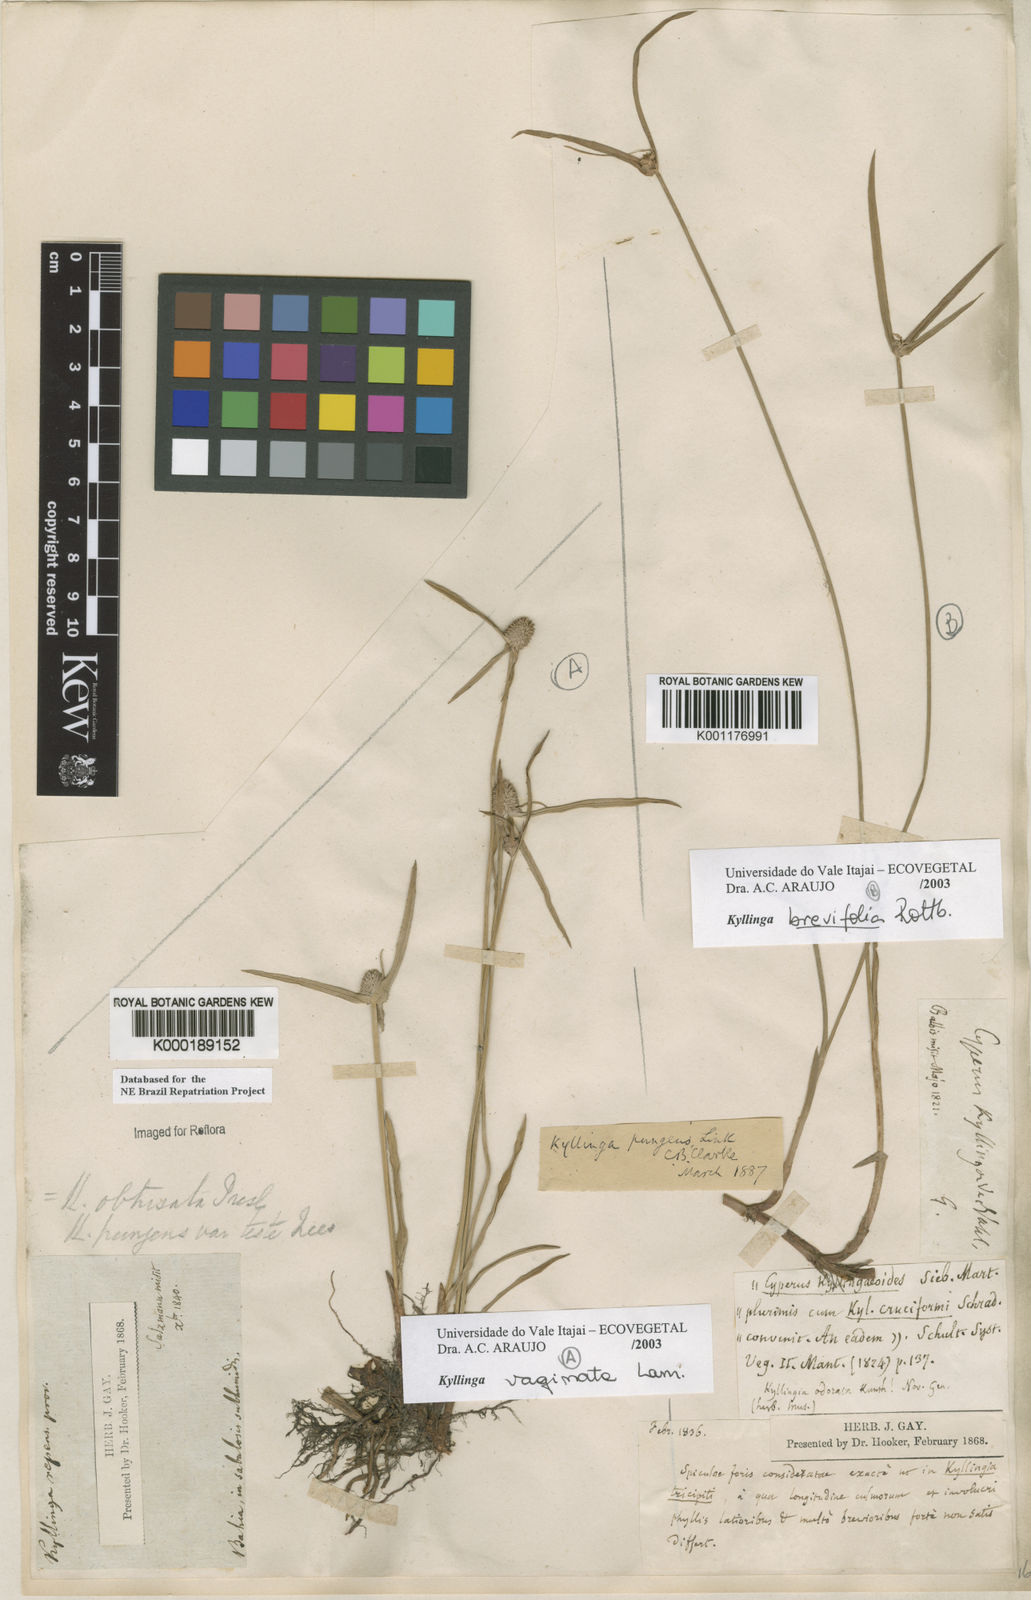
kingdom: Plantae
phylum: Tracheophyta
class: Liliopsida
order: Poales
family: Cyperaceae
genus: Cyperus
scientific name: Cyperus obtusatus
